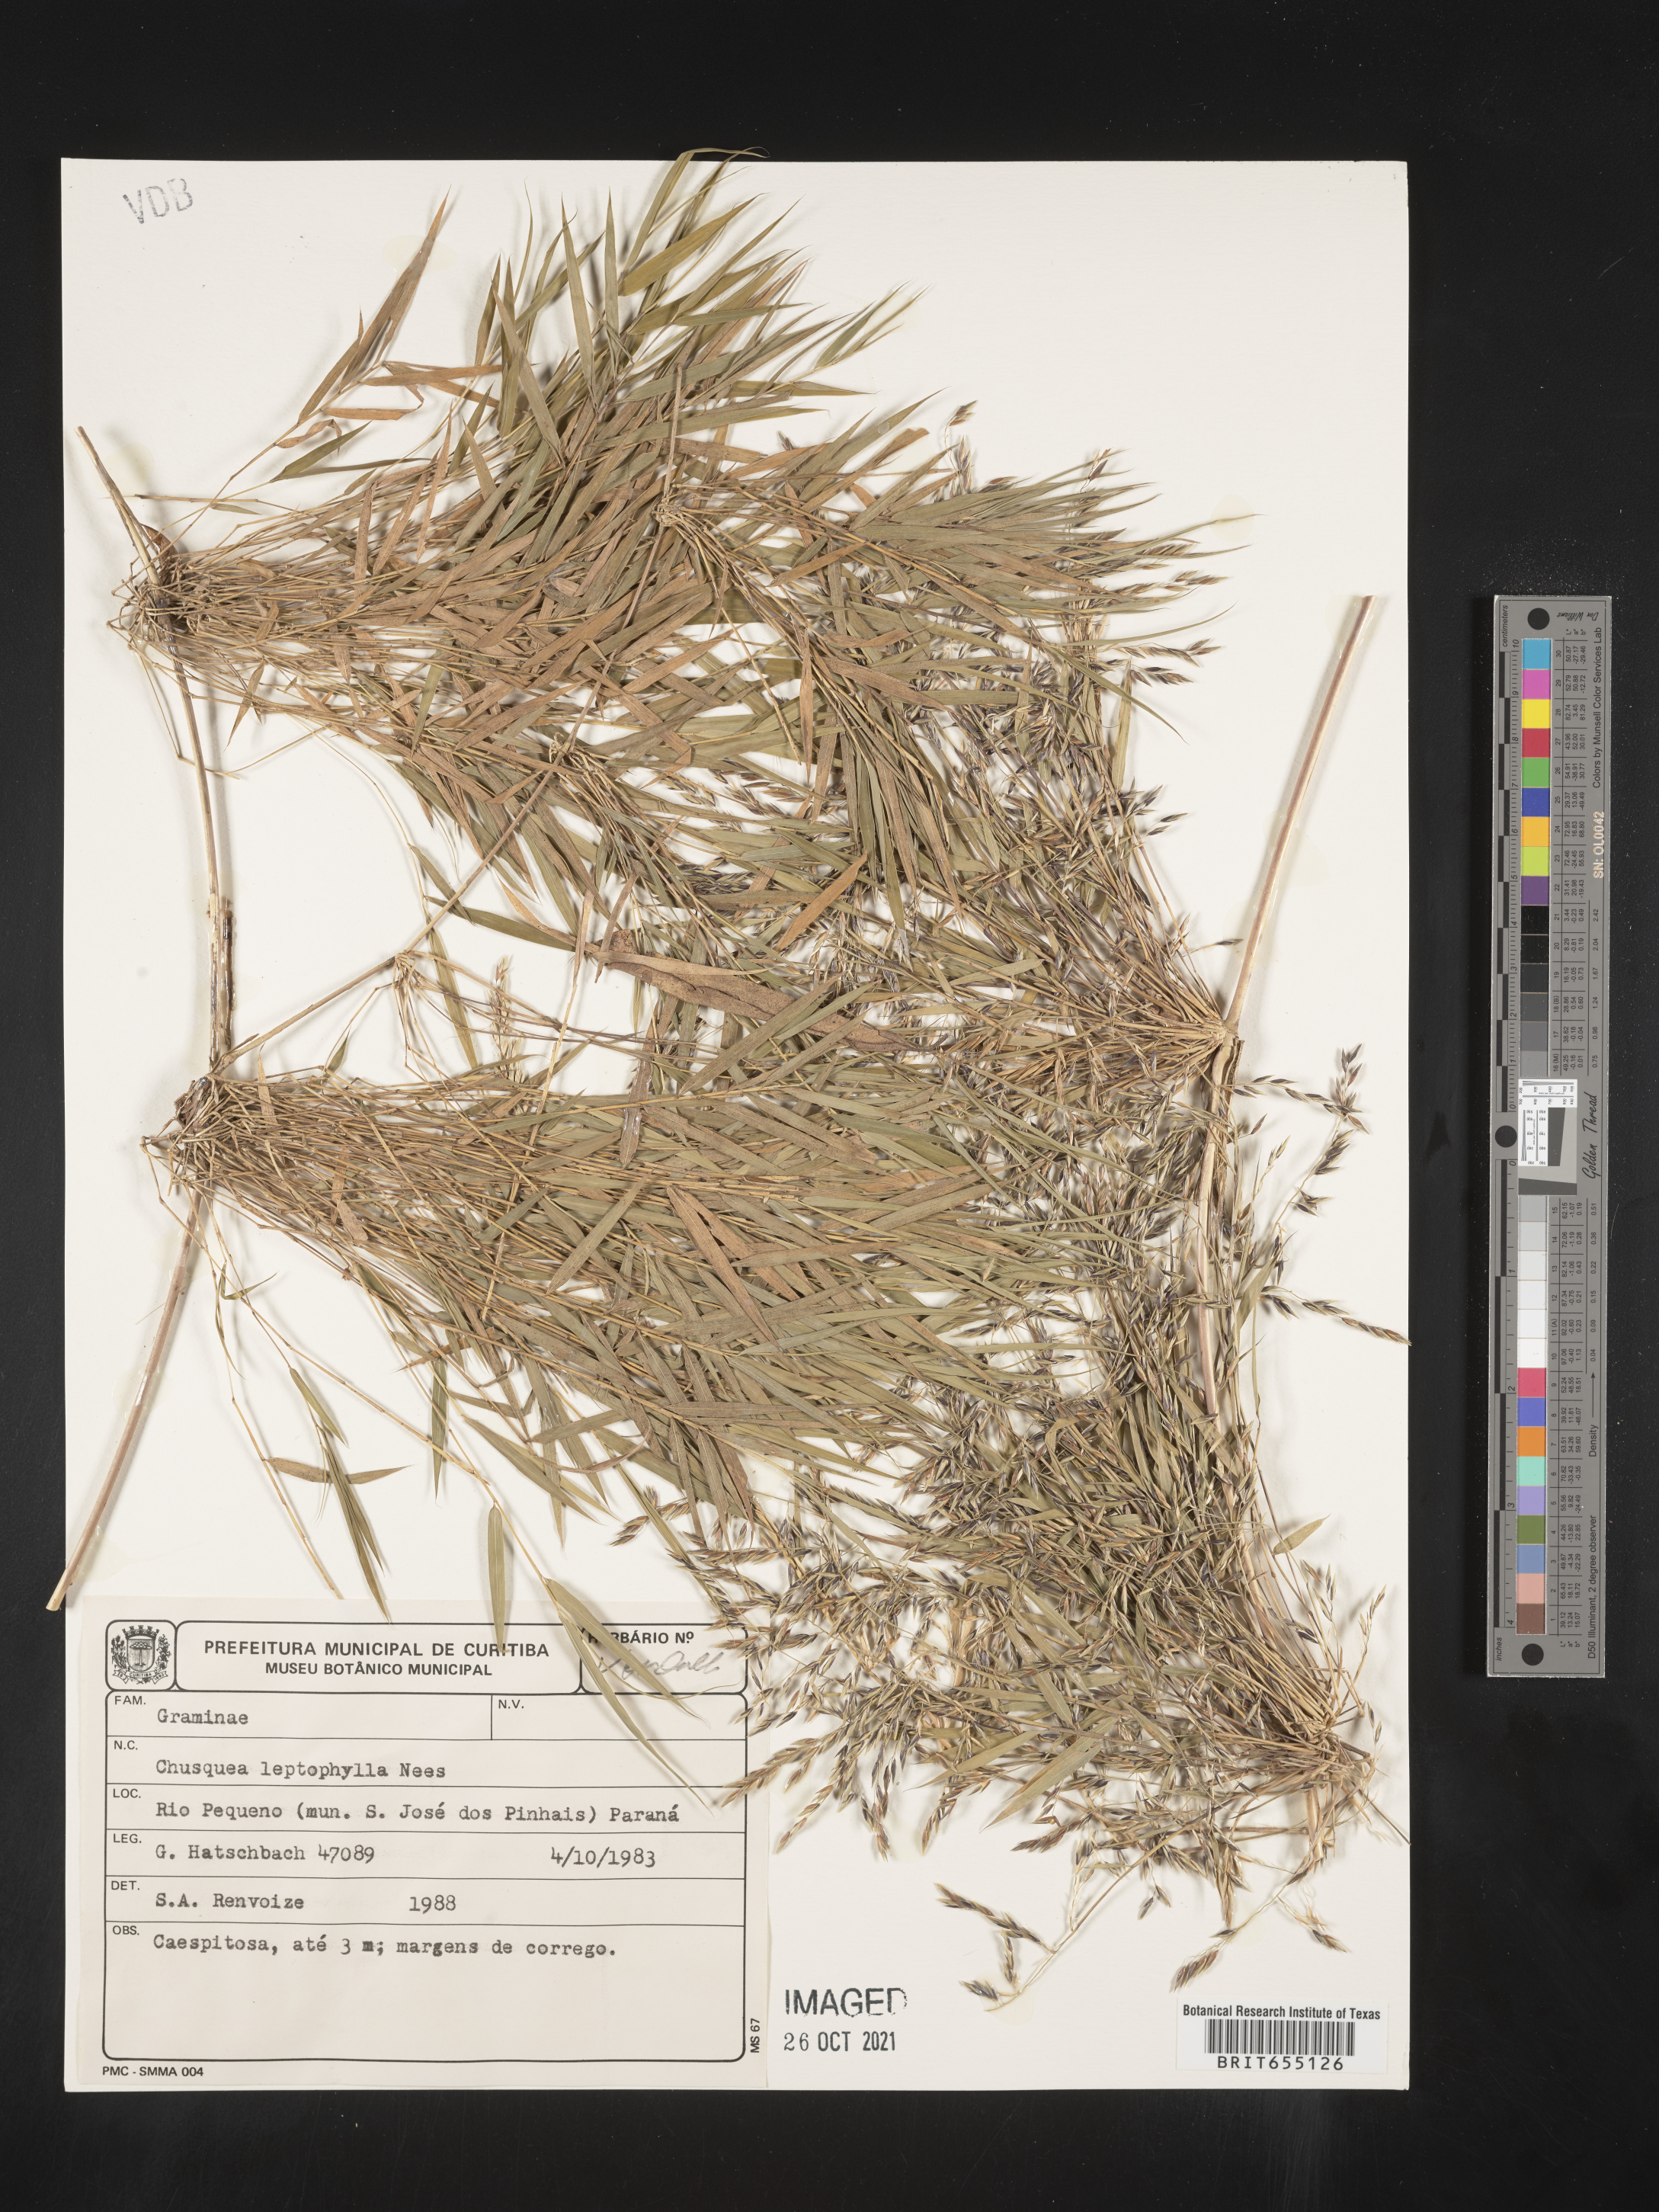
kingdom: Plantae
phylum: Tracheophyta
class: Liliopsida
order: Poales
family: Poaceae
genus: Chusquea
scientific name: Chusquea
